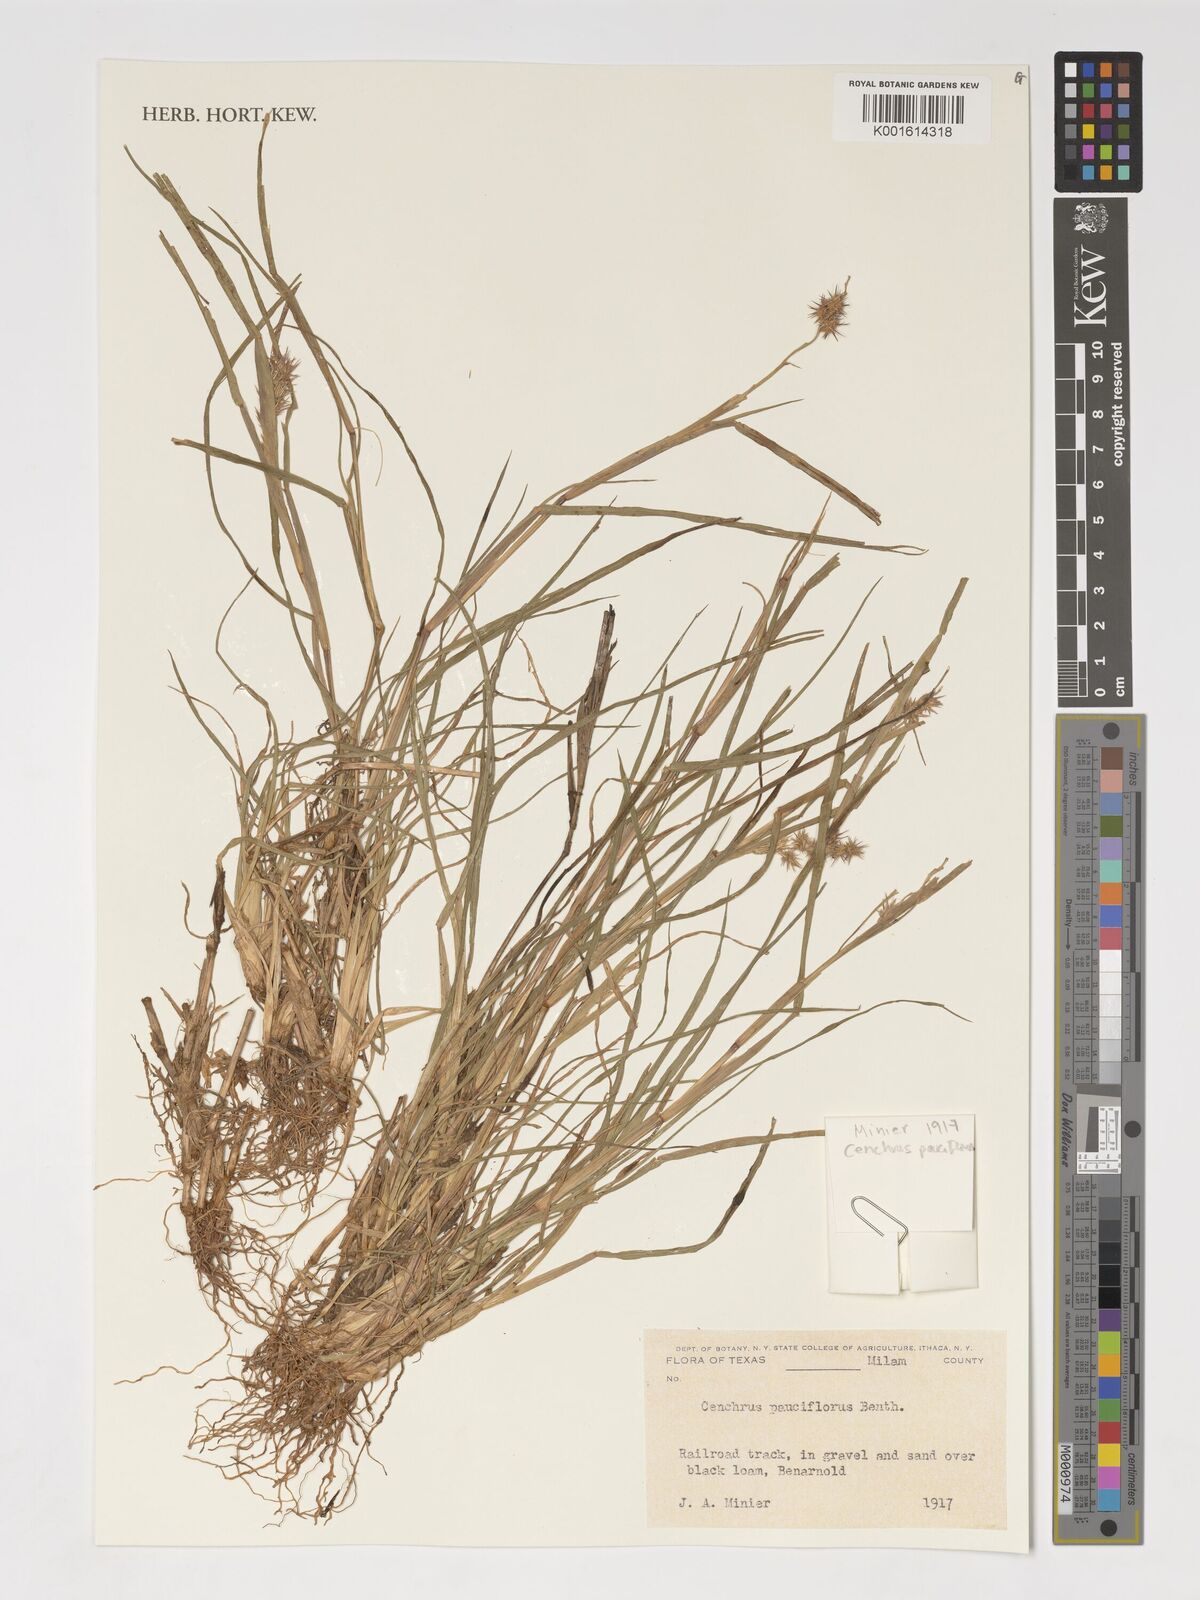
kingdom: Plantae
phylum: Tracheophyta
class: Liliopsida
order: Poales
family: Poaceae
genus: Cenchrus
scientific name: Cenchrus spinifex
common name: Coast sandbur
